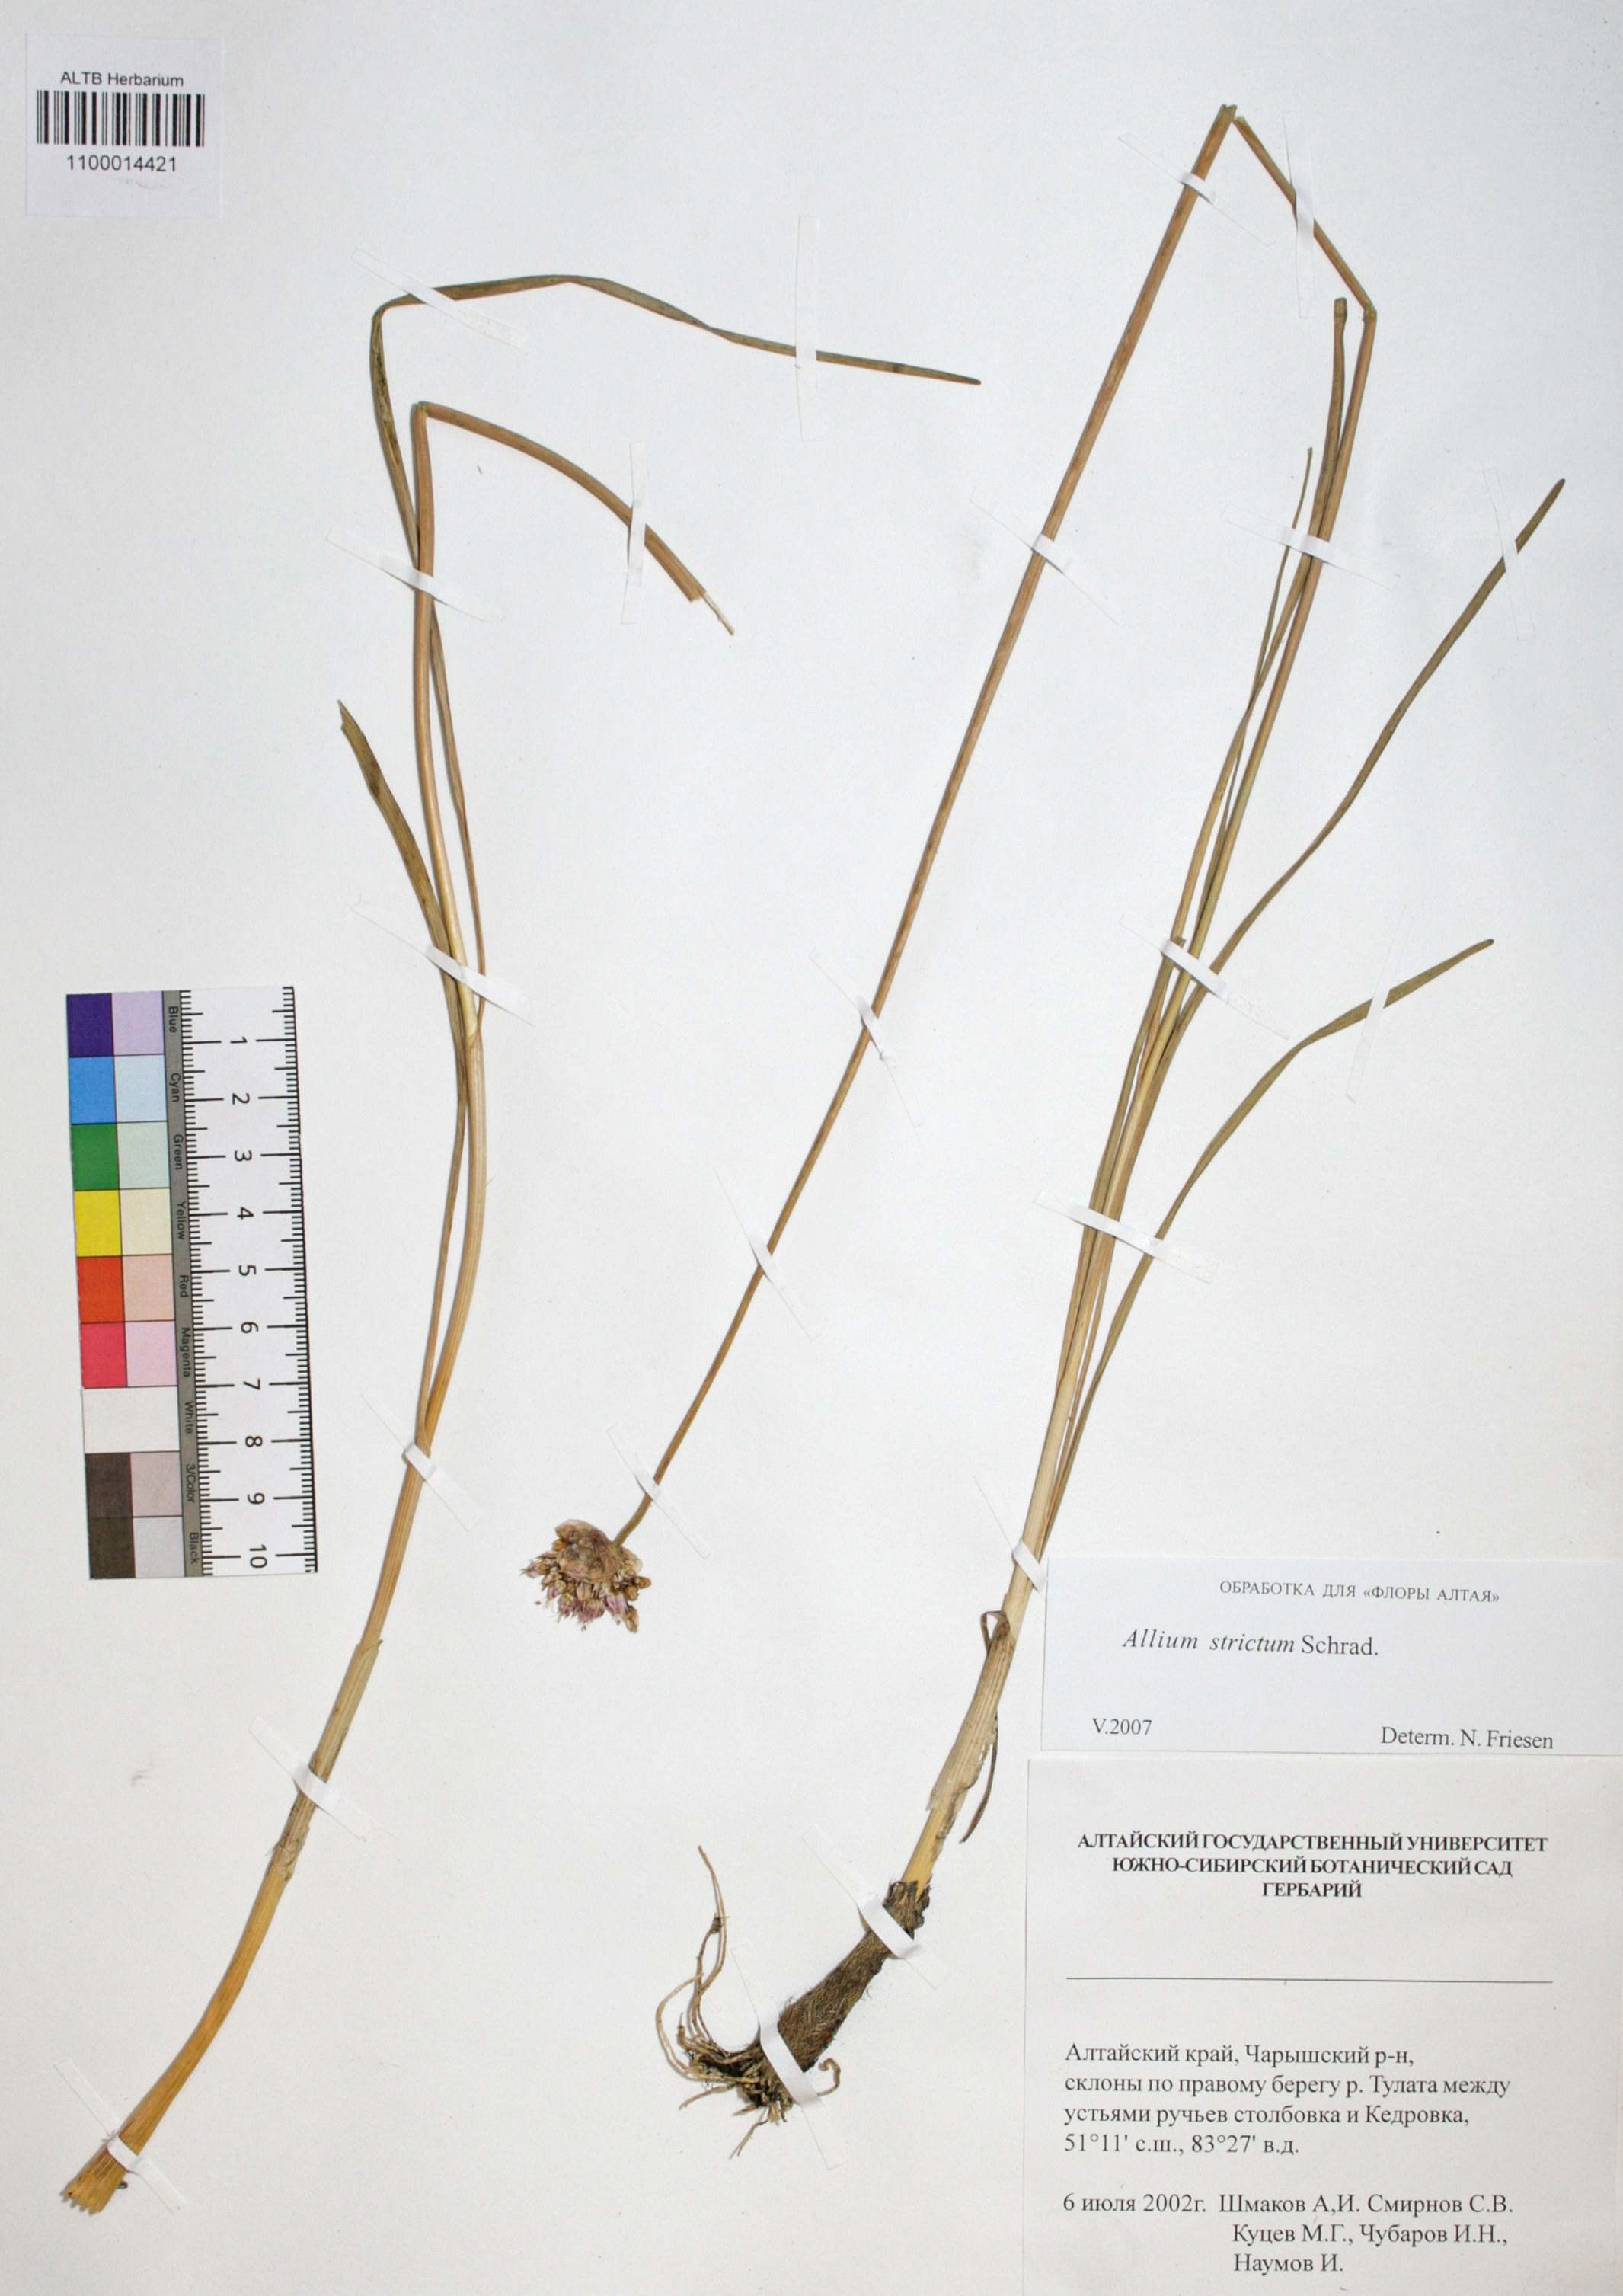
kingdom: Plantae
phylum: Tracheophyta
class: Liliopsida
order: Asparagales
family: Amaryllidaceae
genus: Allium
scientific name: Allium strictum
